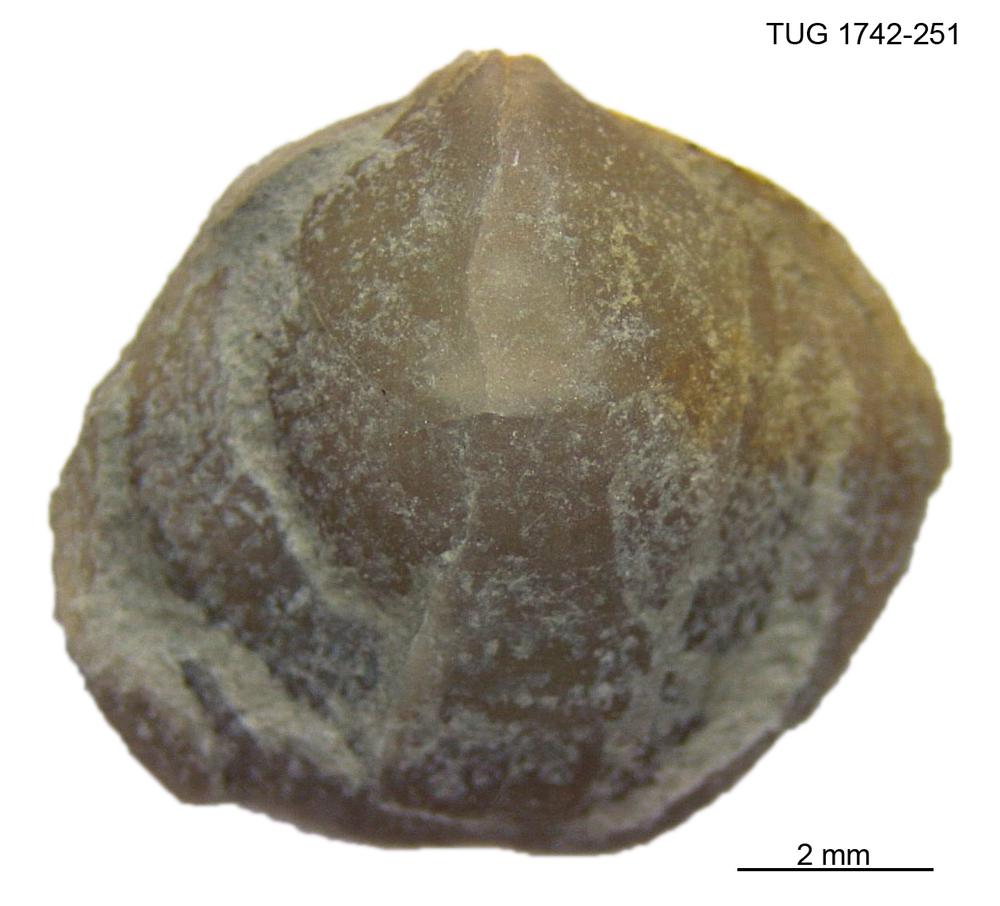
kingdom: Animalia
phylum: Brachiopoda
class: Rhynchonellata
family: Anazygidae
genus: Pentlandella
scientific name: Pentlandella
